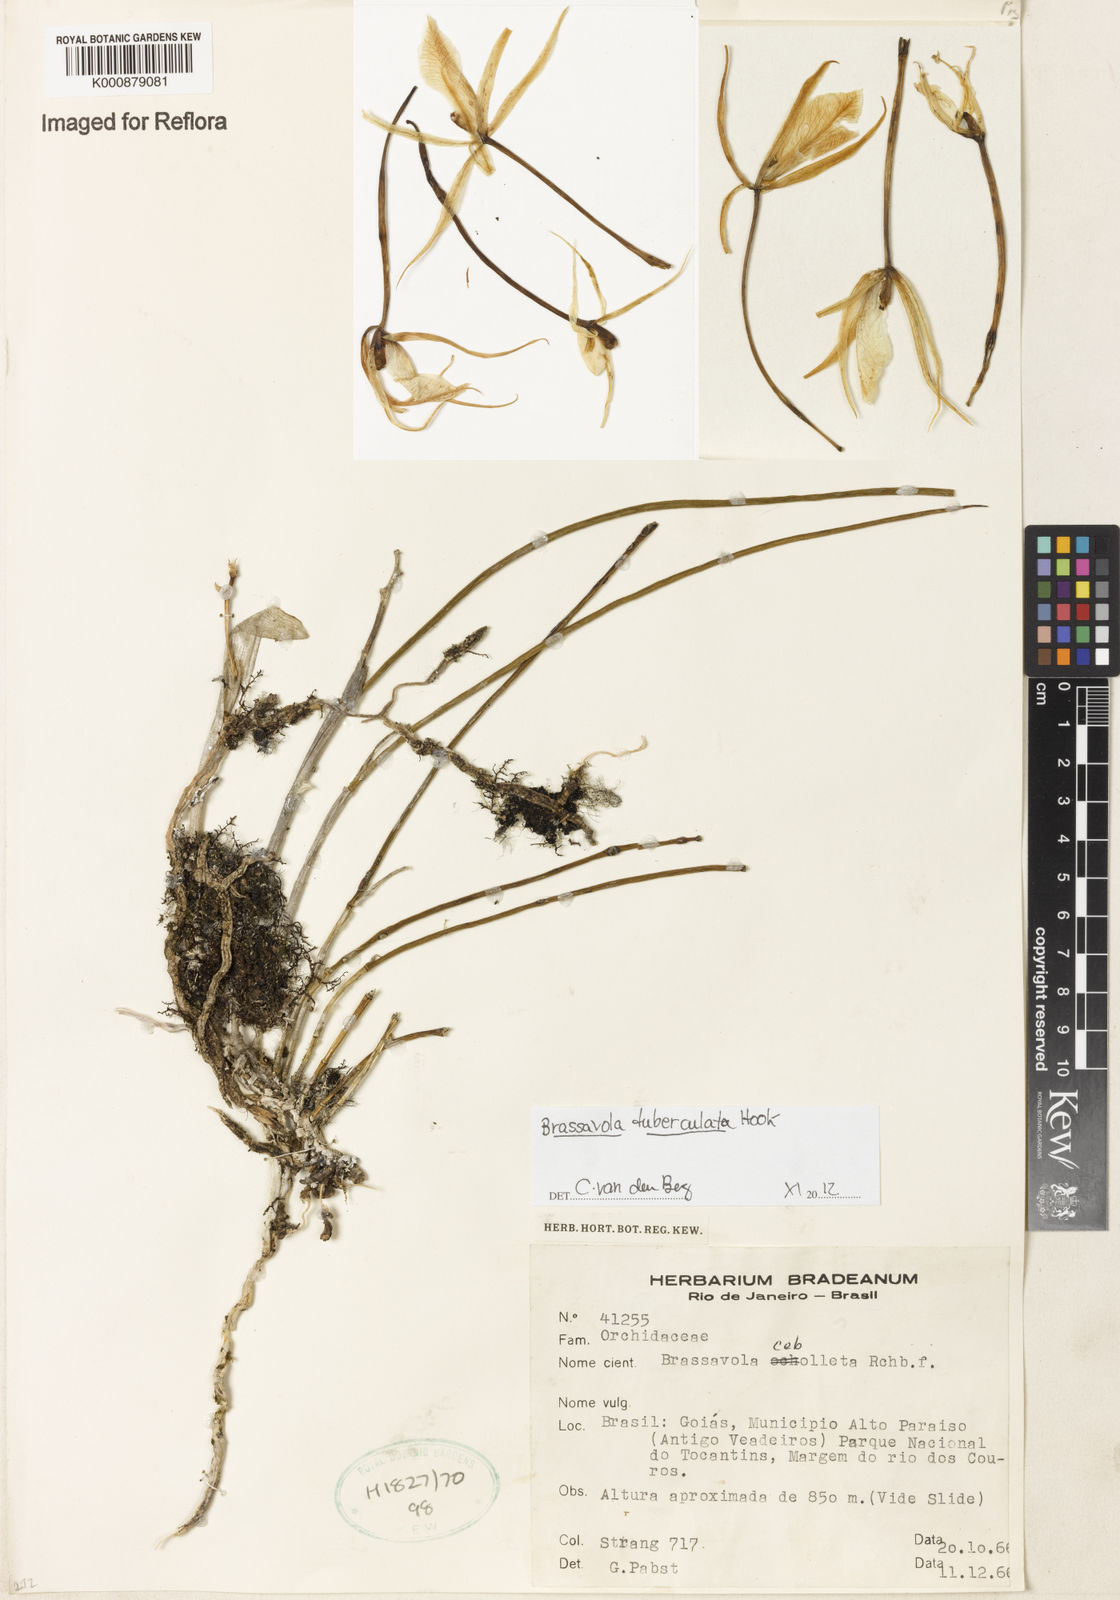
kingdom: Plantae
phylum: Tracheophyta
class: Liliopsida
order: Asparagales
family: Orchidaceae
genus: Brassavola
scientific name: Brassavola tuberculata
